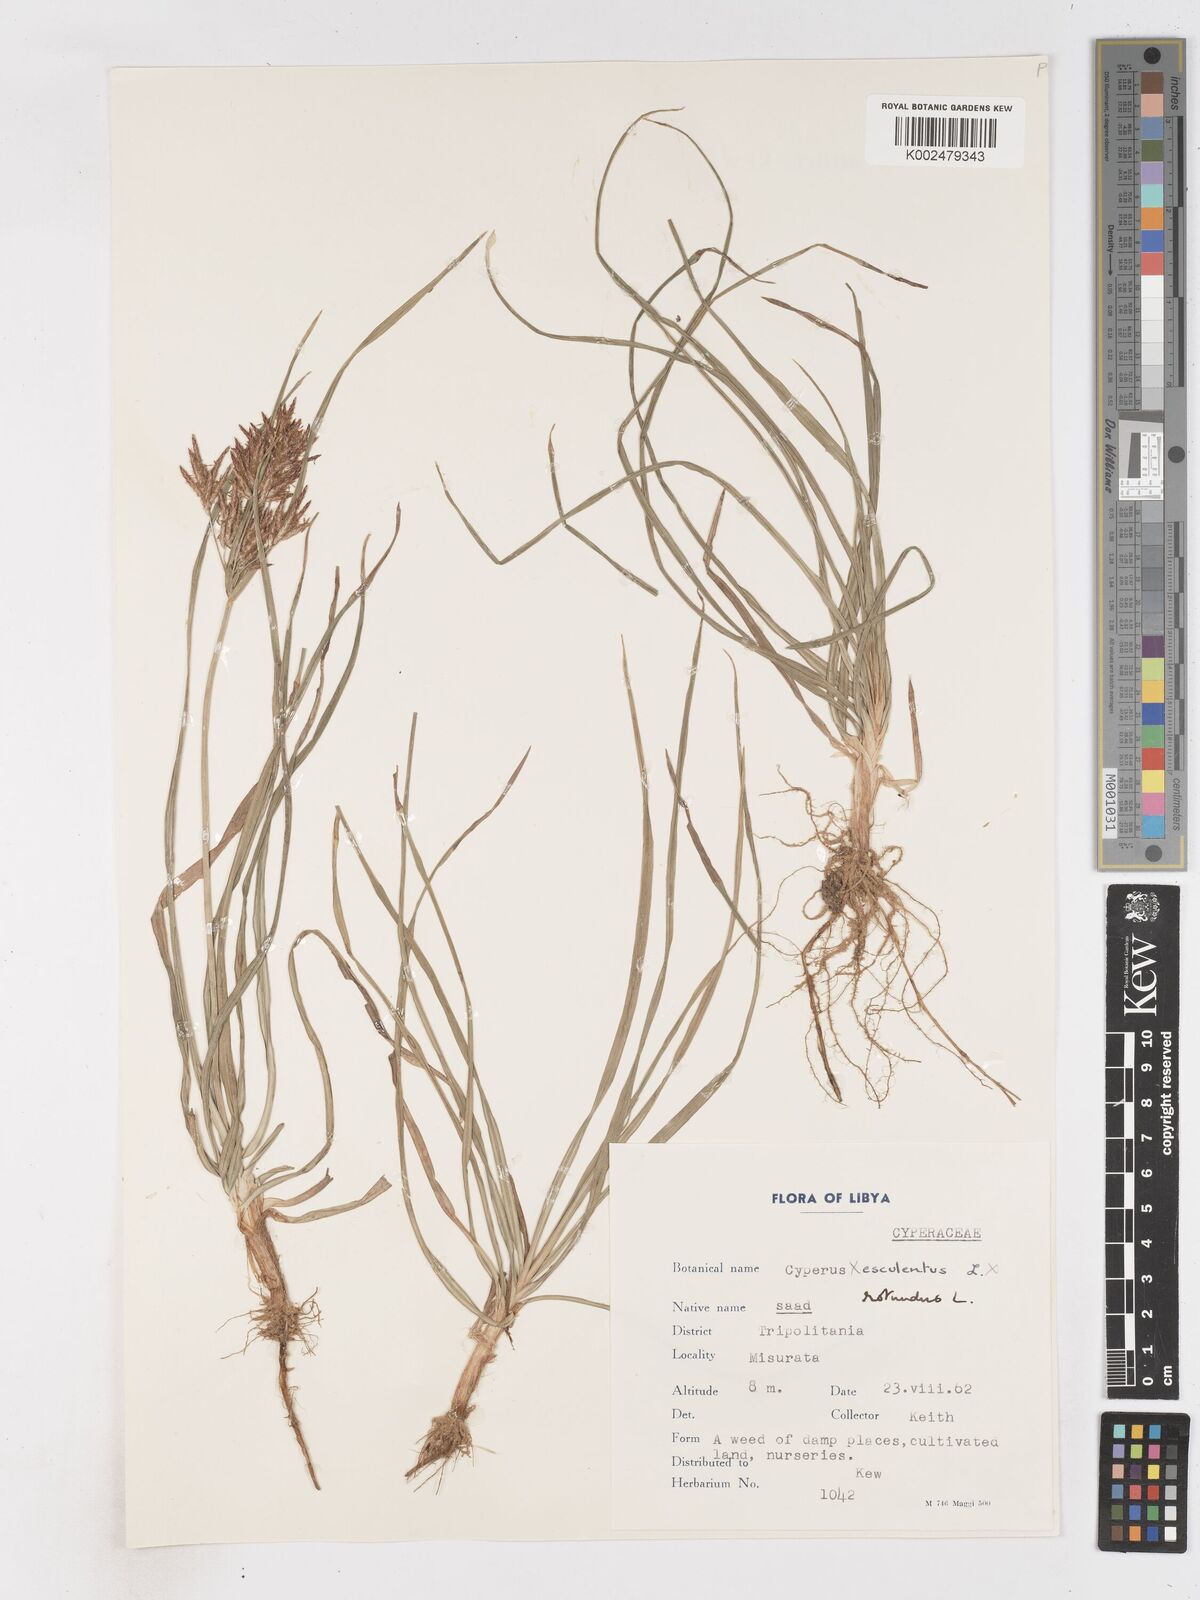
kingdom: Plantae
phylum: Tracheophyta
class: Liliopsida
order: Poales
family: Cyperaceae
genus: Cyperus
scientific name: Cyperus rotundus
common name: Nutgrass
